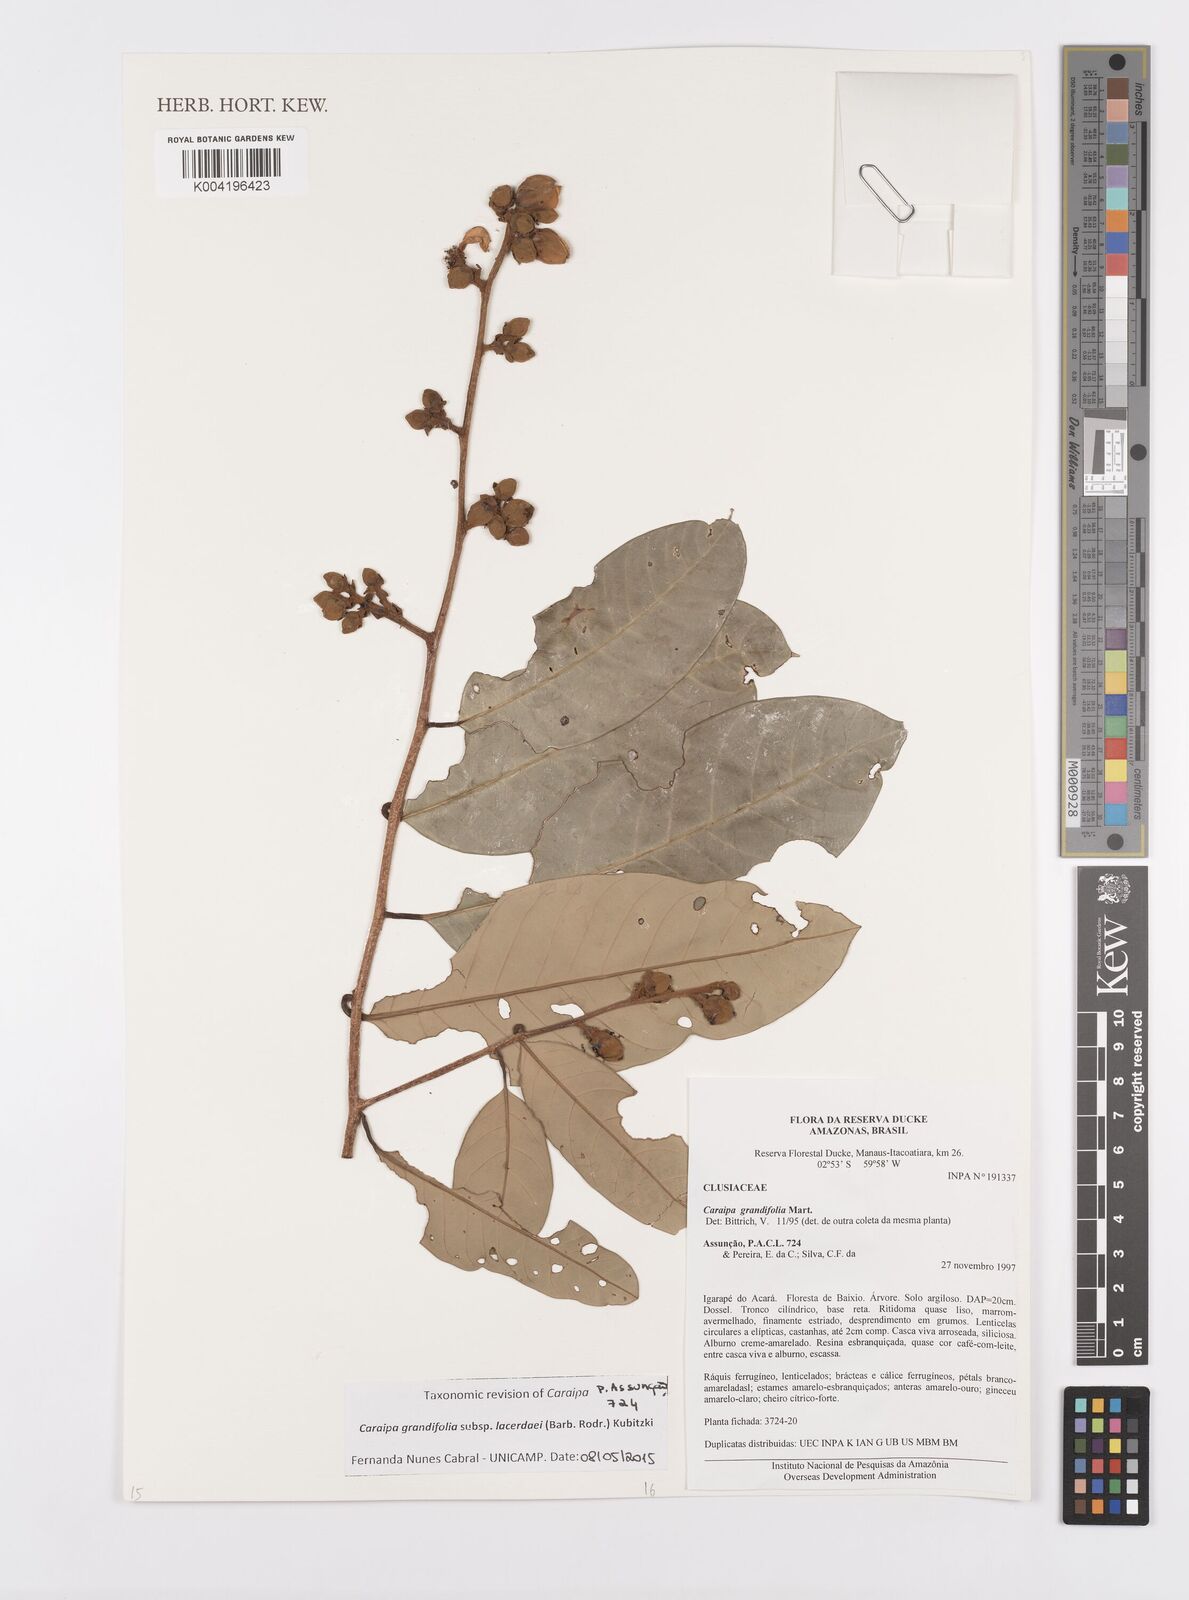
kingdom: Plantae
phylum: Tracheophyta
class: Magnoliopsida
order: Malpighiales
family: Calophyllaceae
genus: Caraipa
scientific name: Caraipa grandifolia
